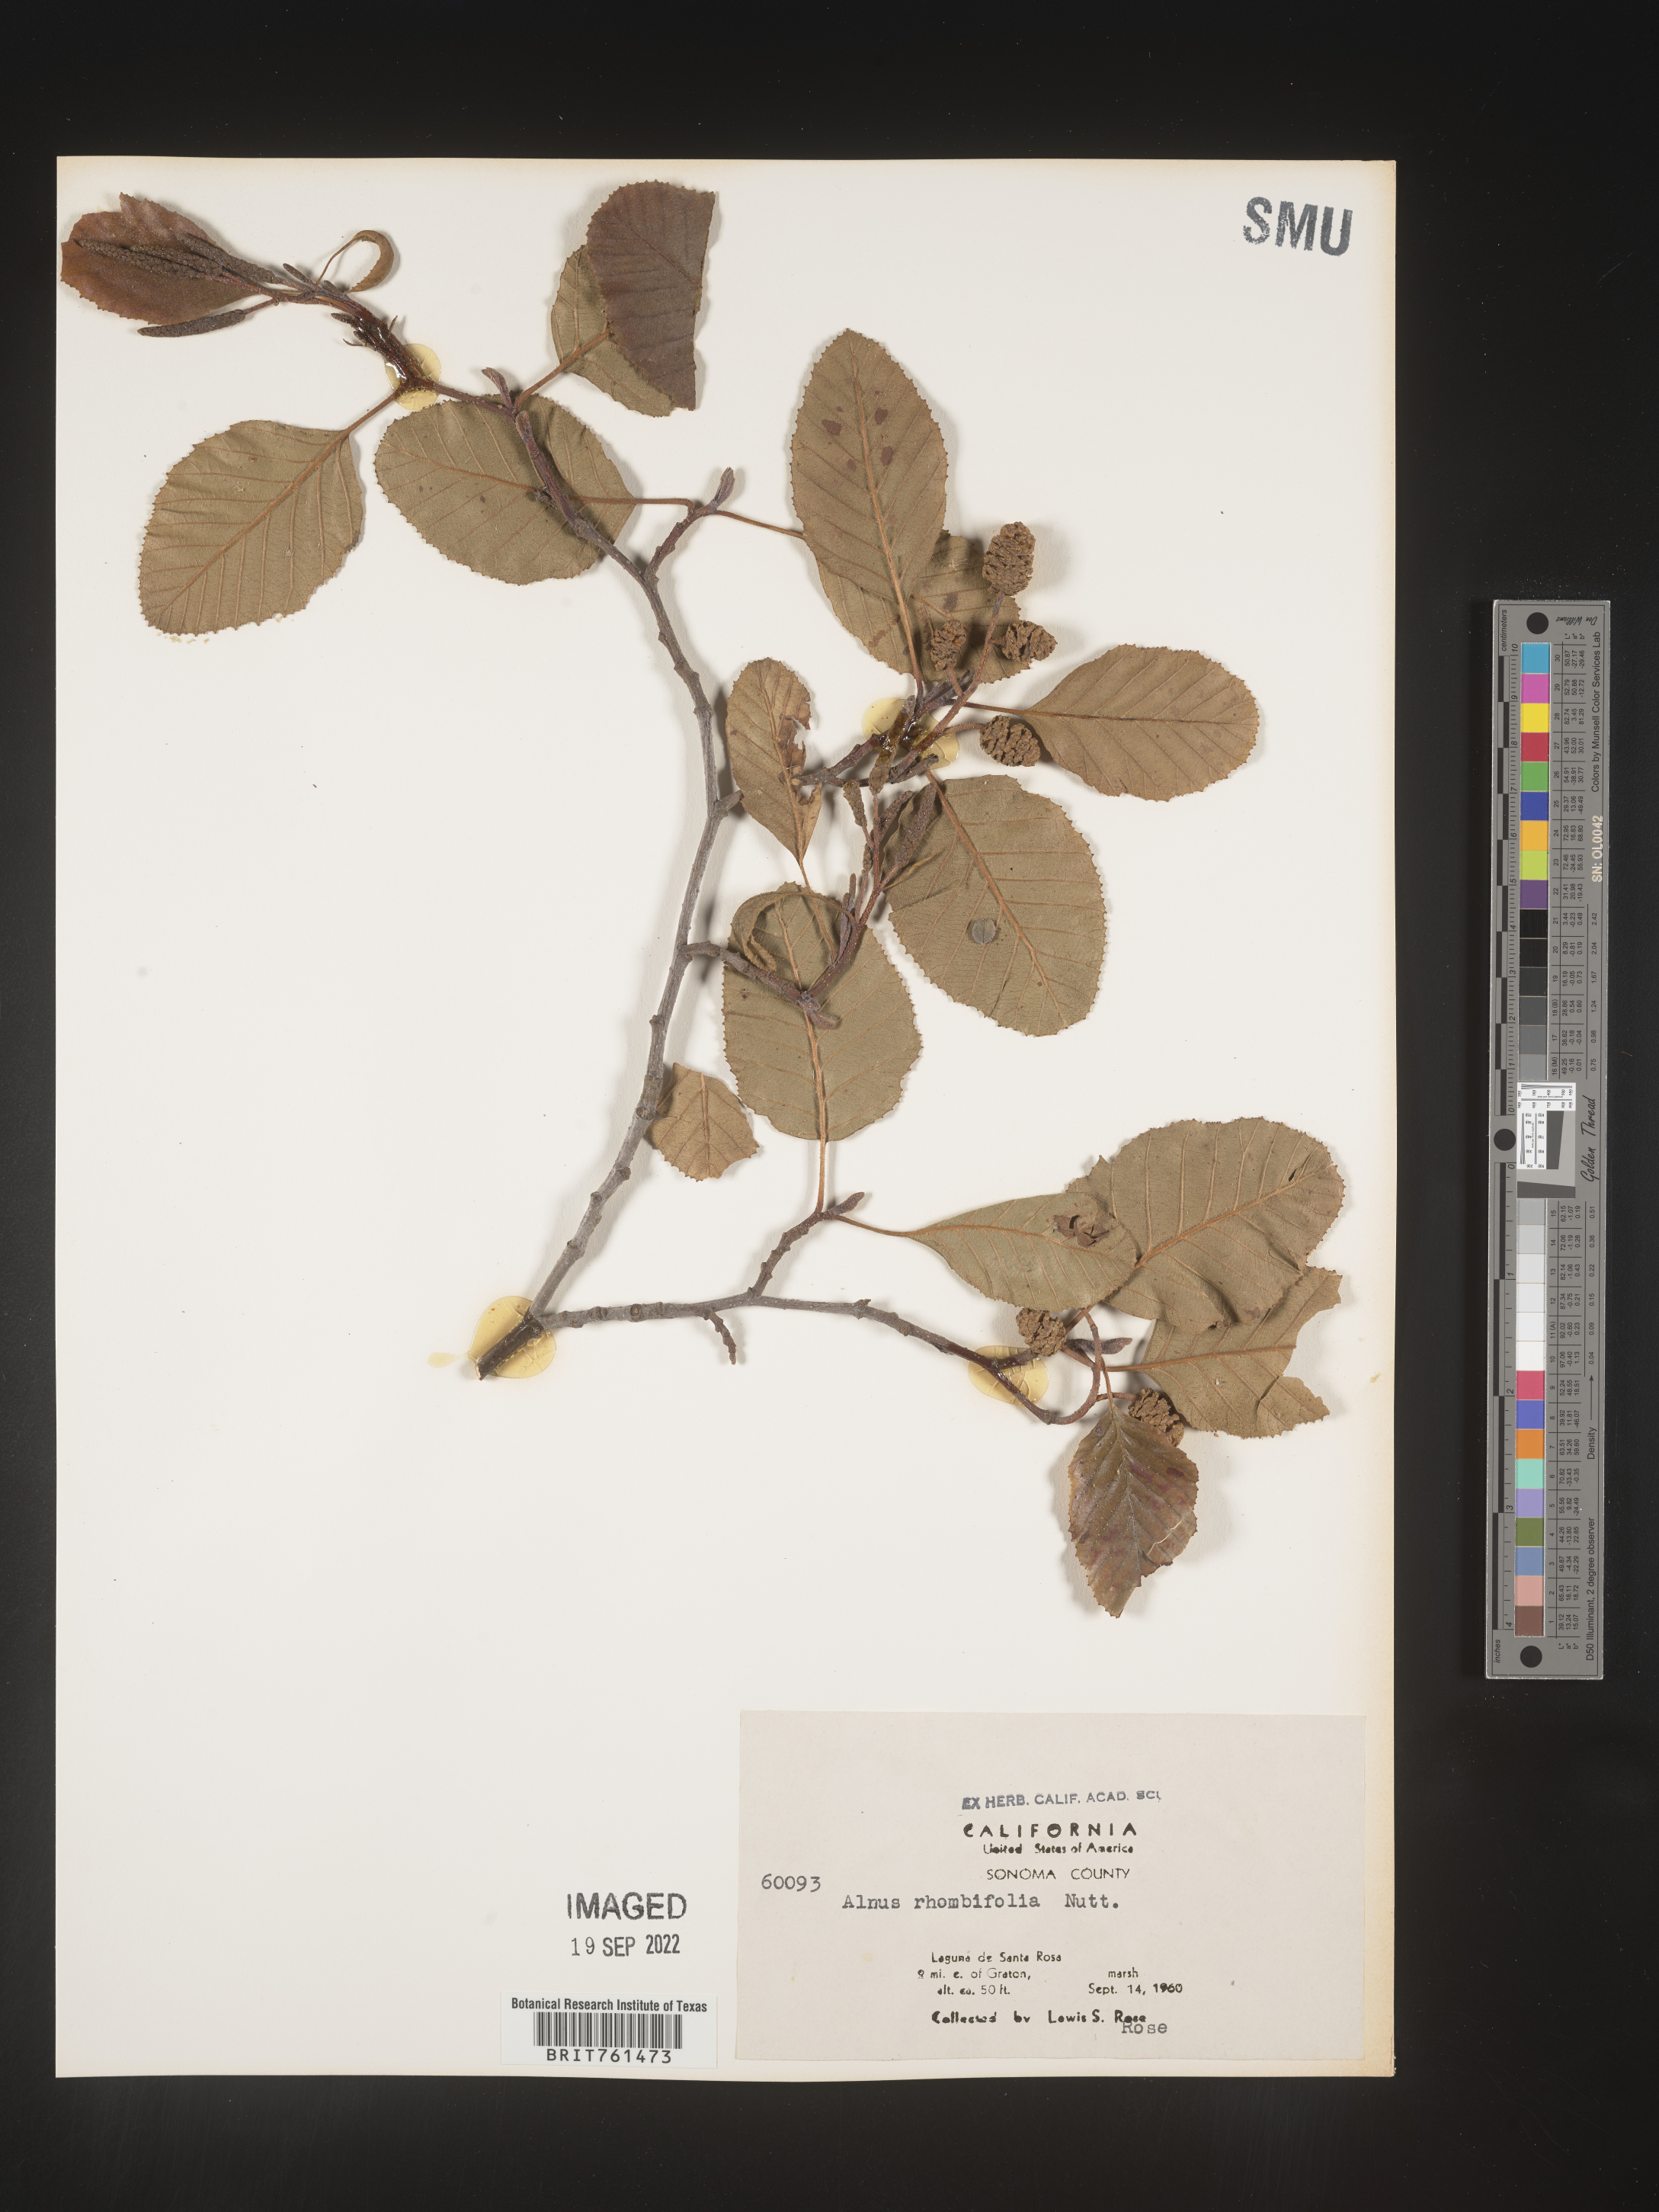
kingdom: Plantae
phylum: Tracheophyta
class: Magnoliopsida
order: Fagales
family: Betulaceae
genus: Alnus
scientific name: Alnus rhombifolia
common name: California alder
